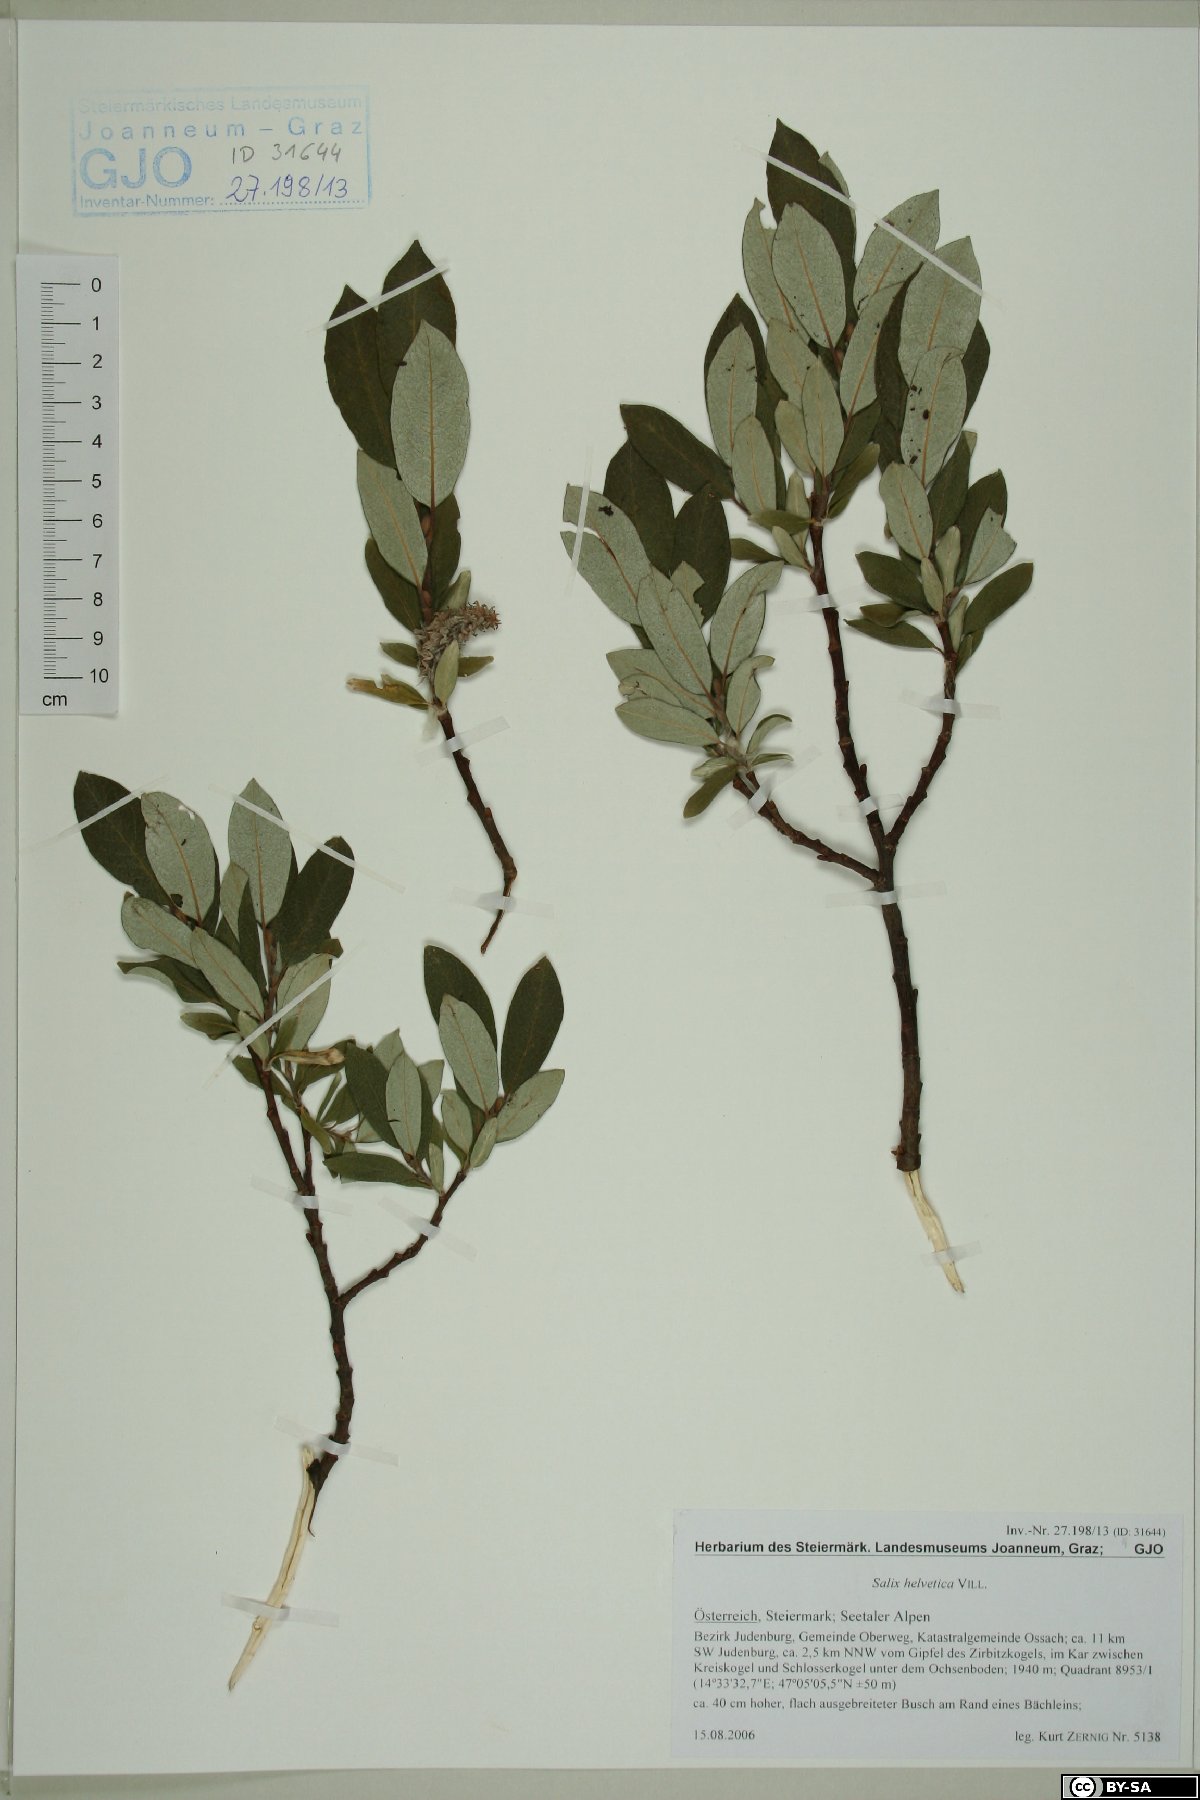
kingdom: Plantae
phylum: Tracheophyta
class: Magnoliopsida
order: Malpighiales
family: Salicaceae
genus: Salix
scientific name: Salix helvetica
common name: Swiss willow
